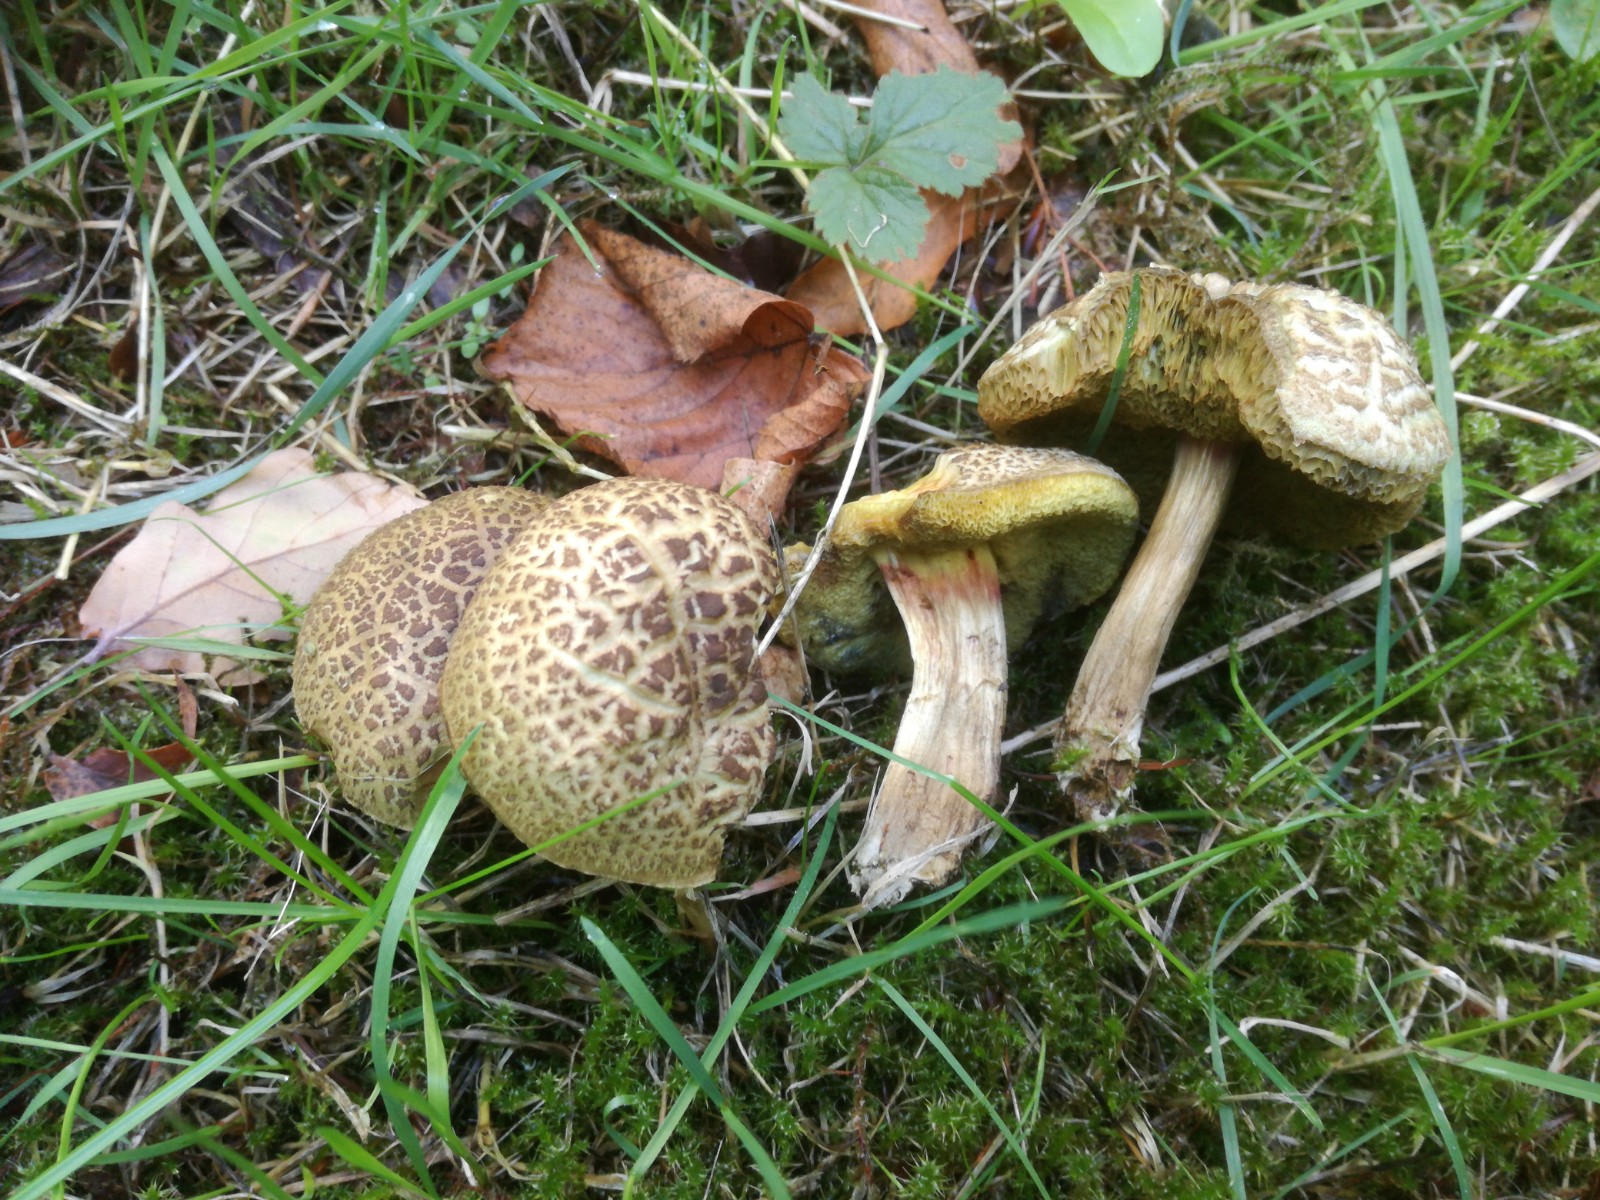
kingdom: Fungi
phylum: Basidiomycota
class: Agaricomycetes
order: Boletales
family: Boletaceae
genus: Xerocomellus
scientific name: Xerocomellus porosporus
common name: hvidsprukken rørhat
